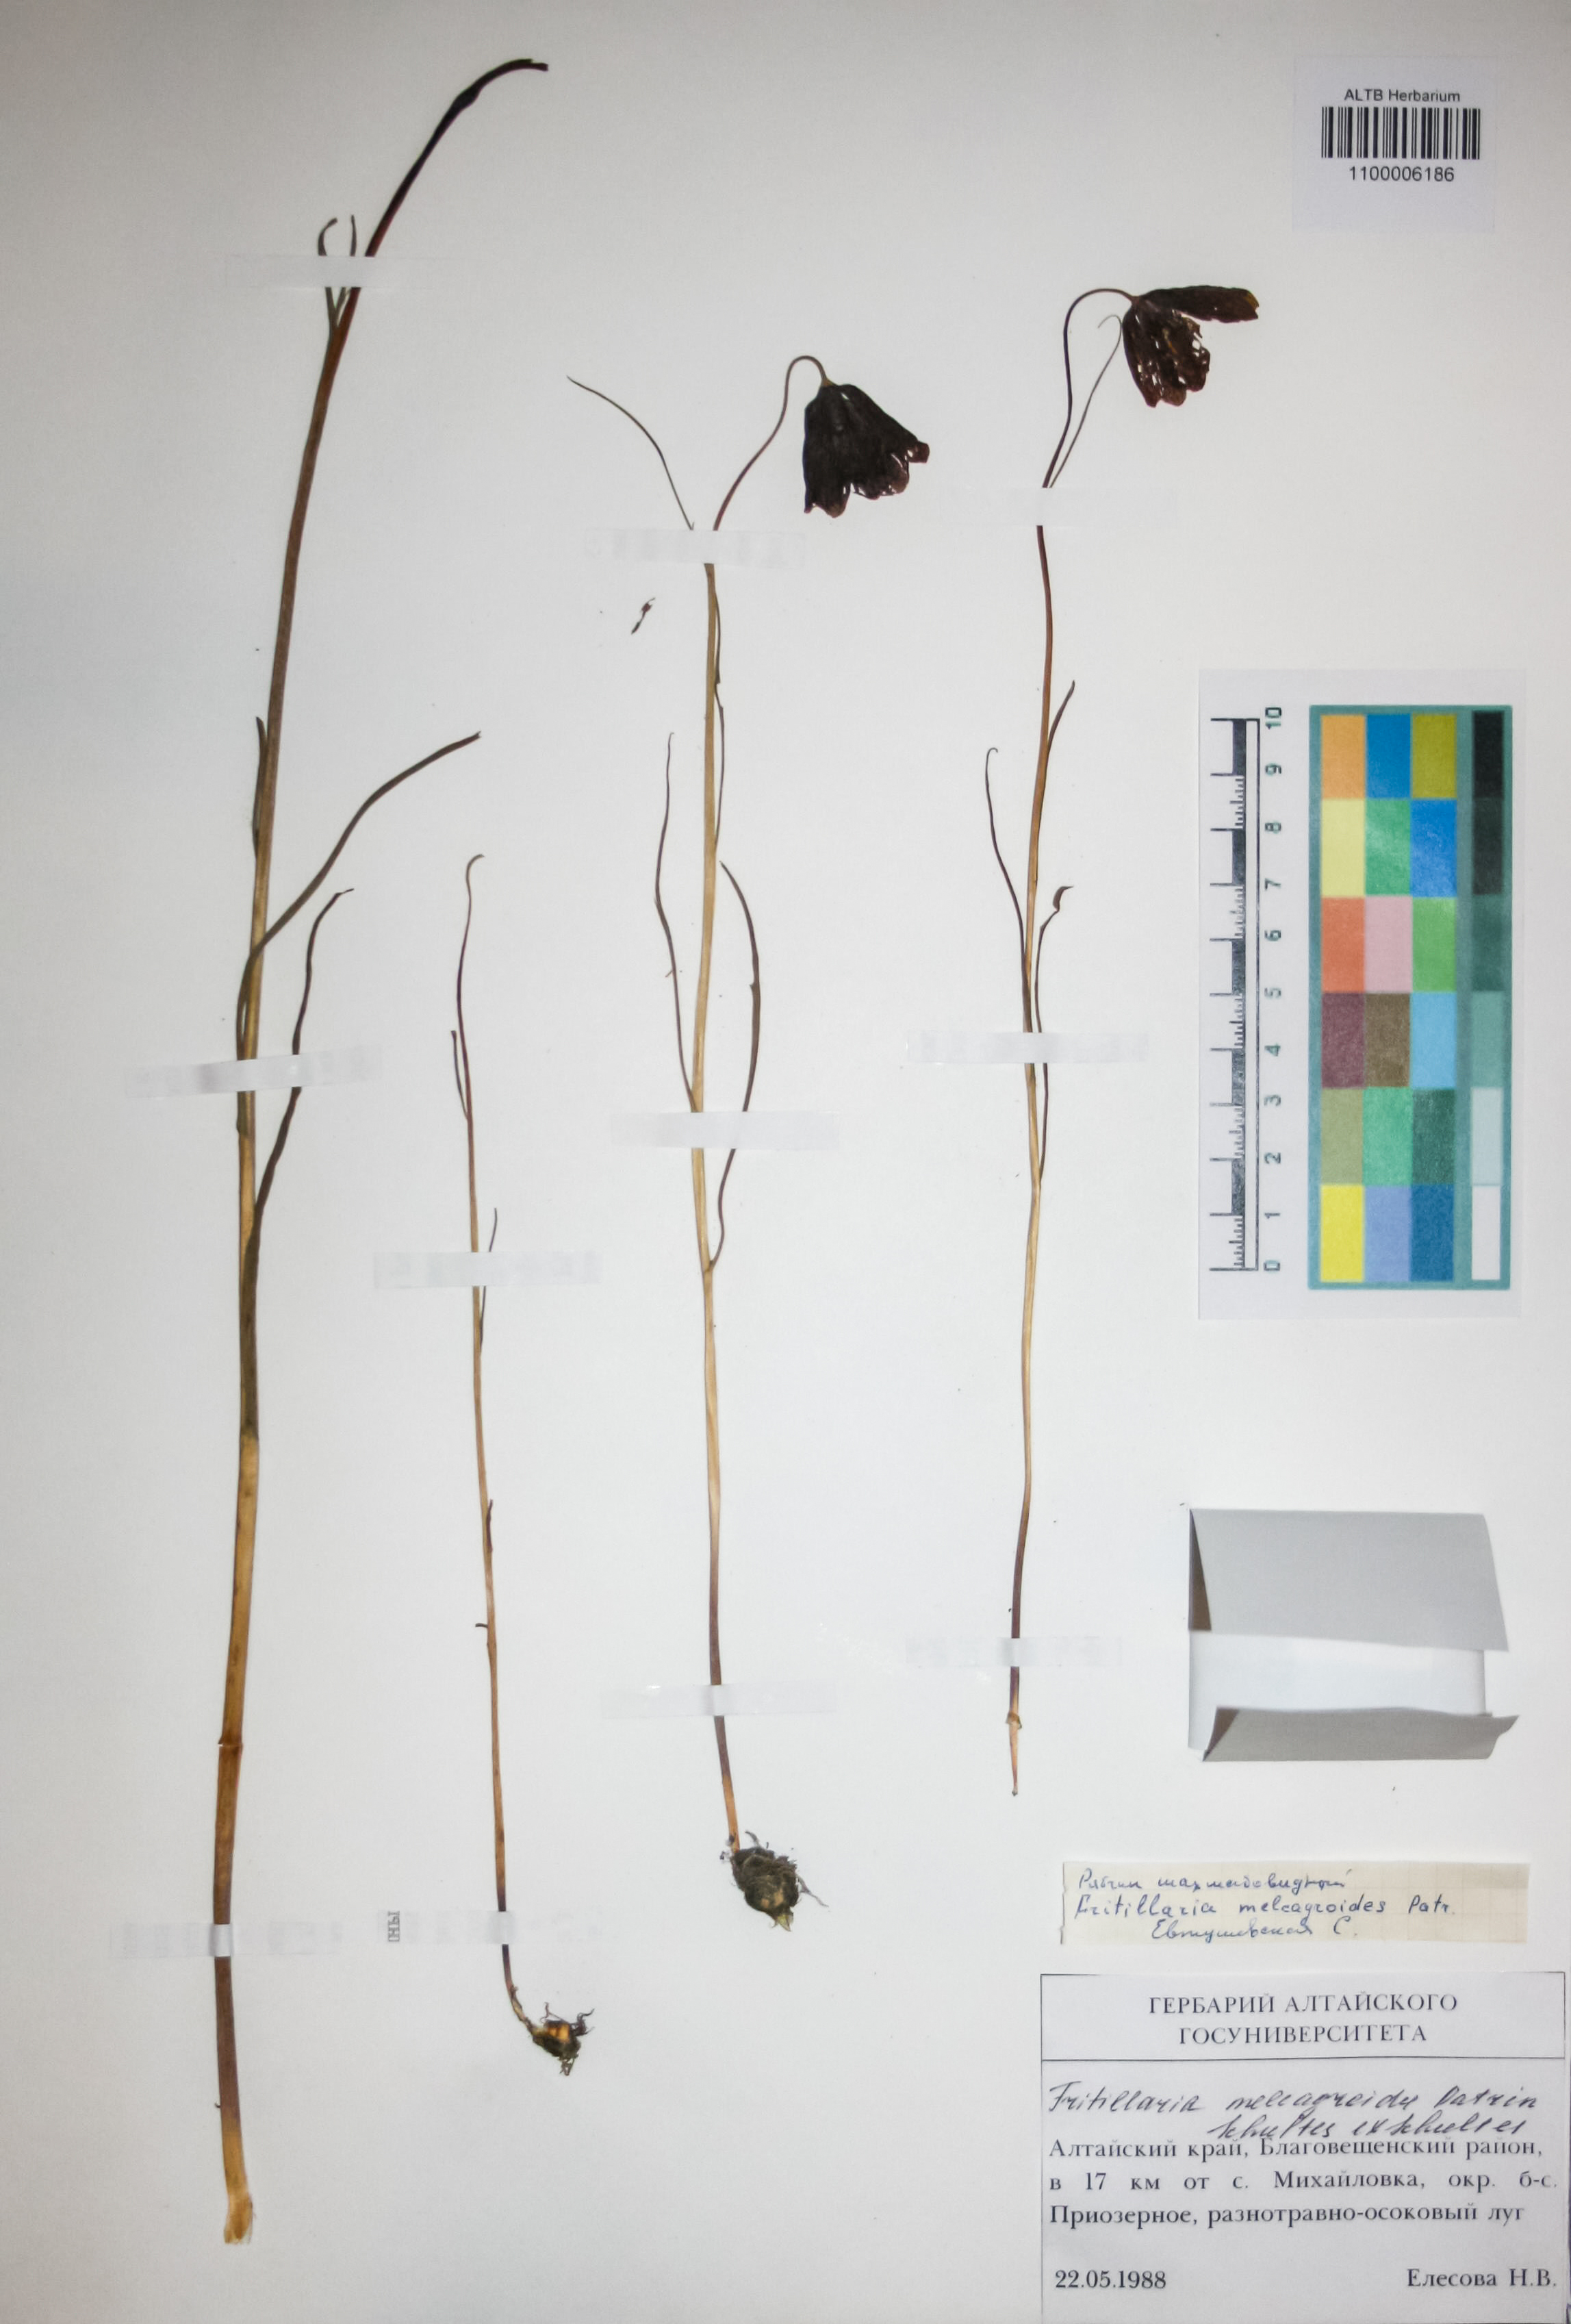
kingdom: Plantae
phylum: Tracheophyta
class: Liliopsida
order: Liliales
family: Liliaceae
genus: Fritillaria
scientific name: Fritillaria meleagroides
